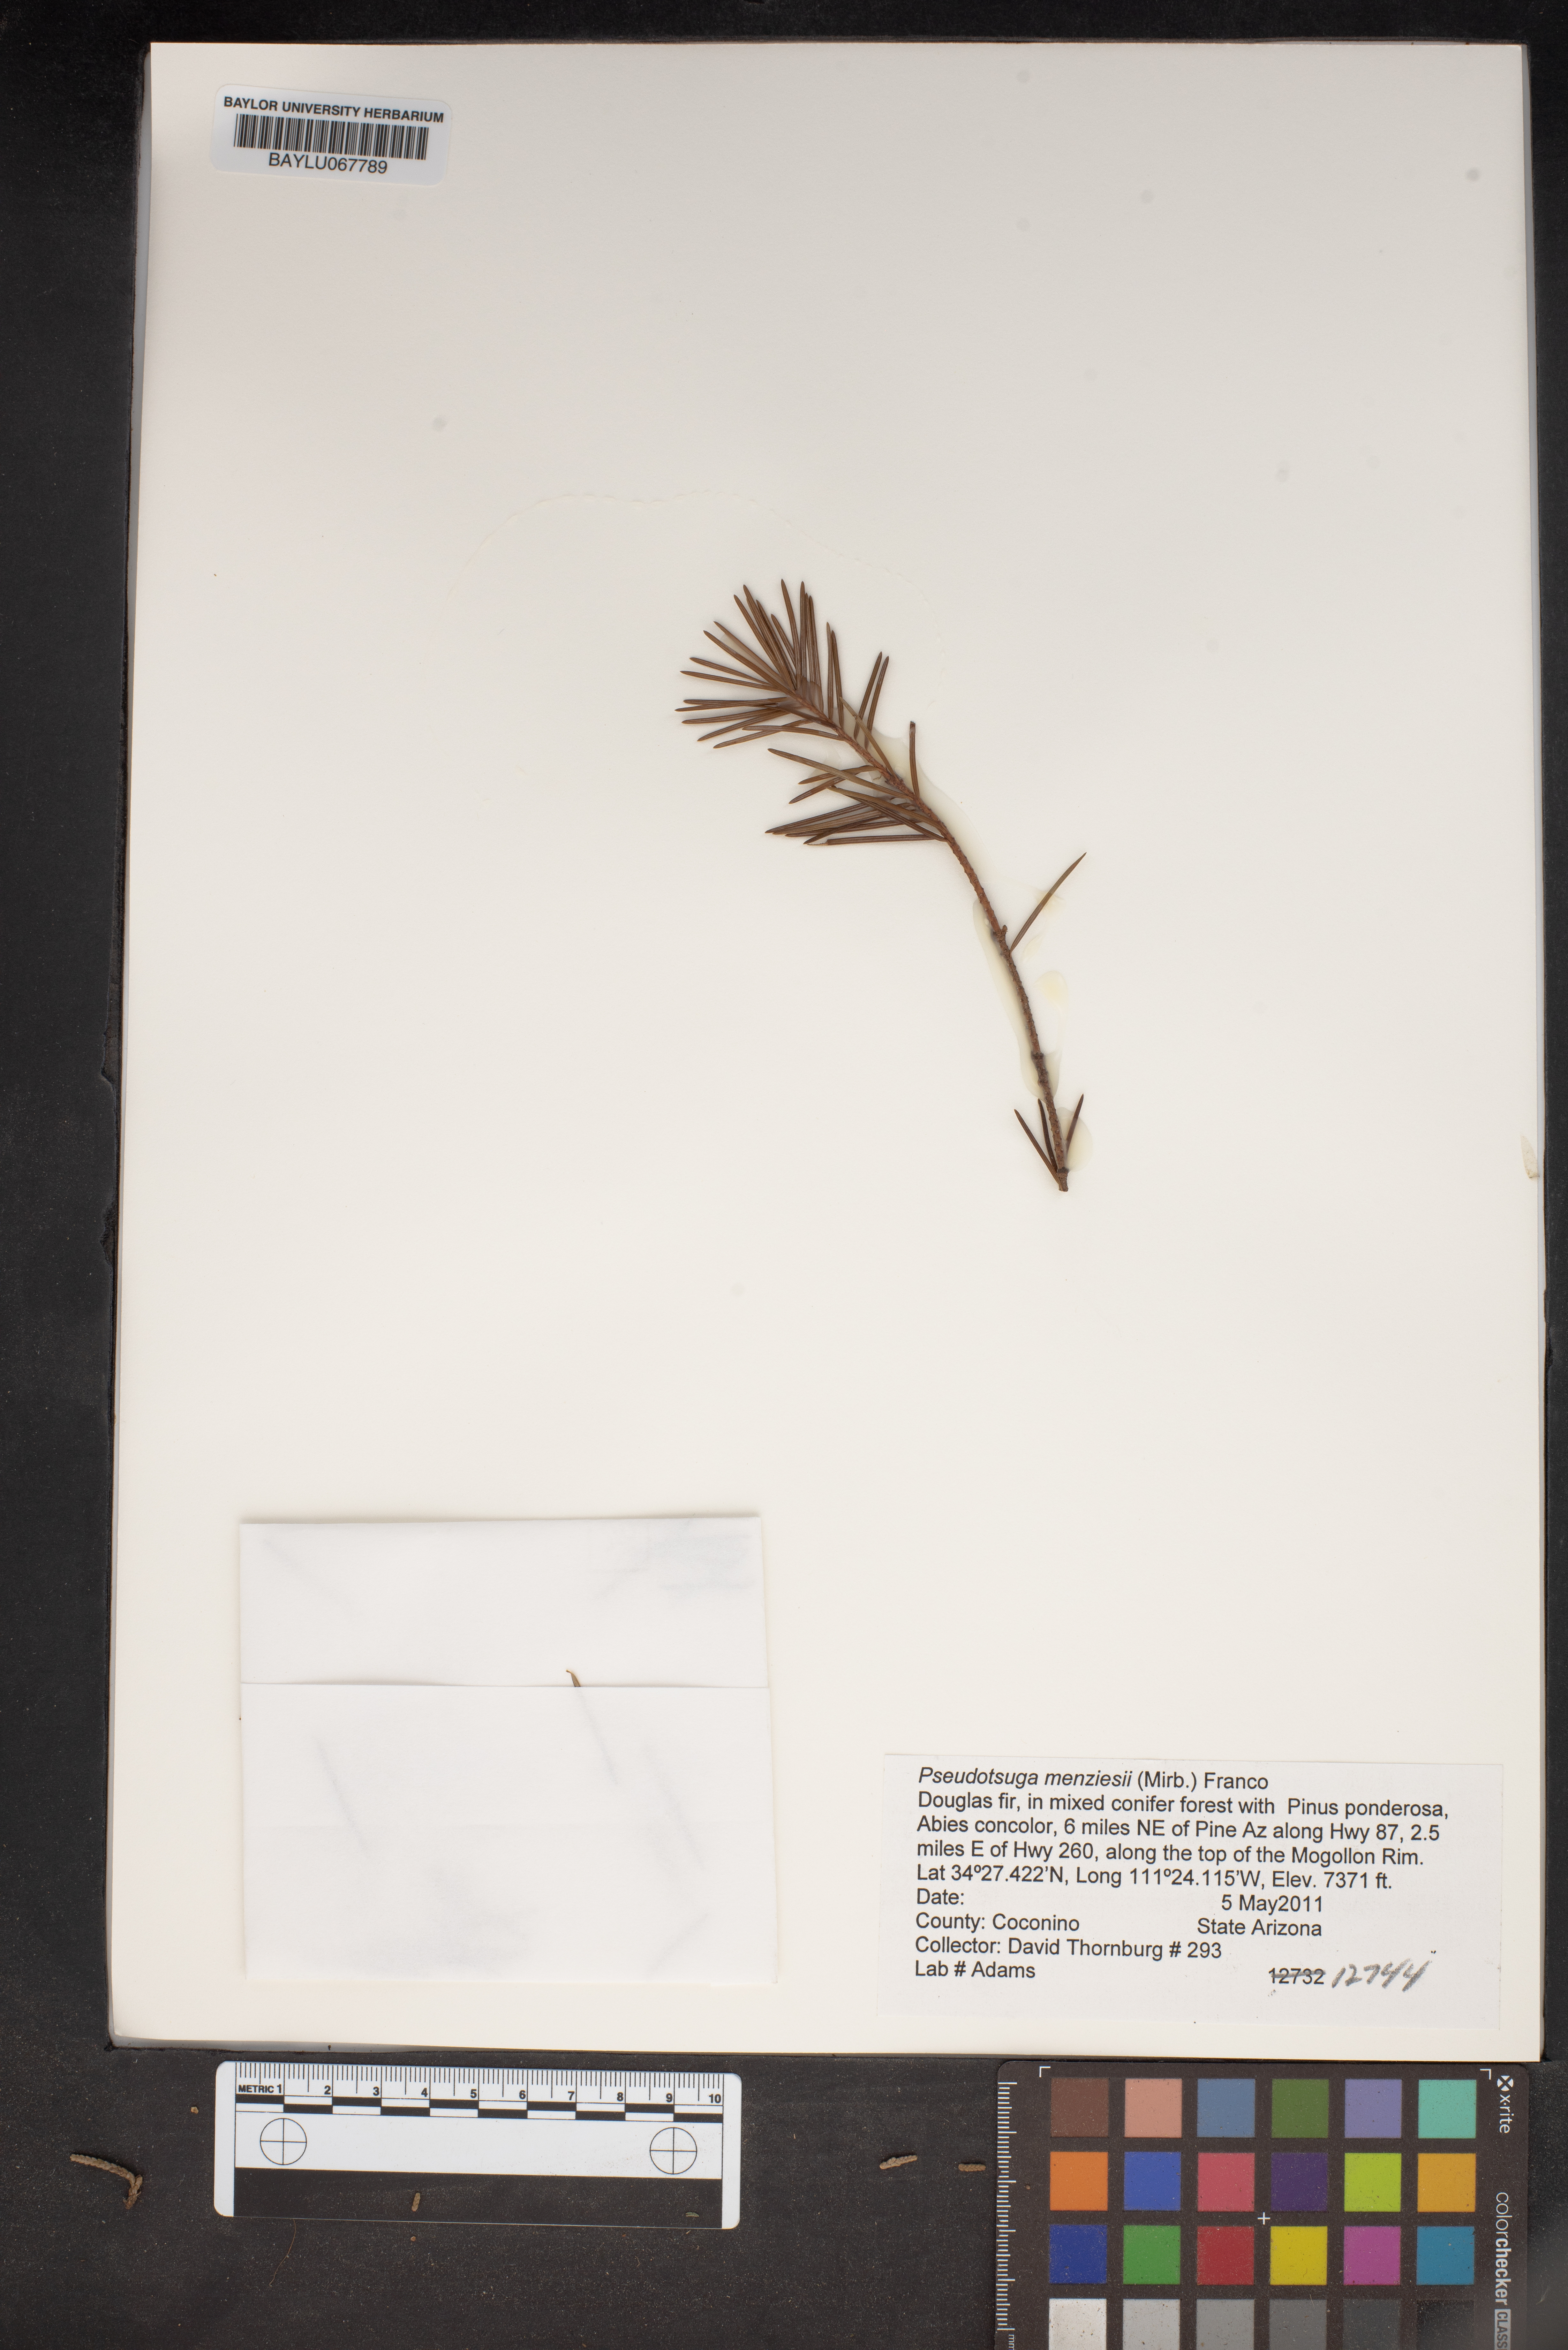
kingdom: Plantae
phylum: Tracheophyta
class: Pinopsida
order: Pinales
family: Pinaceae
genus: Pseudotsuga
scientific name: Pseudotsuga menziesii
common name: Douglas fir
